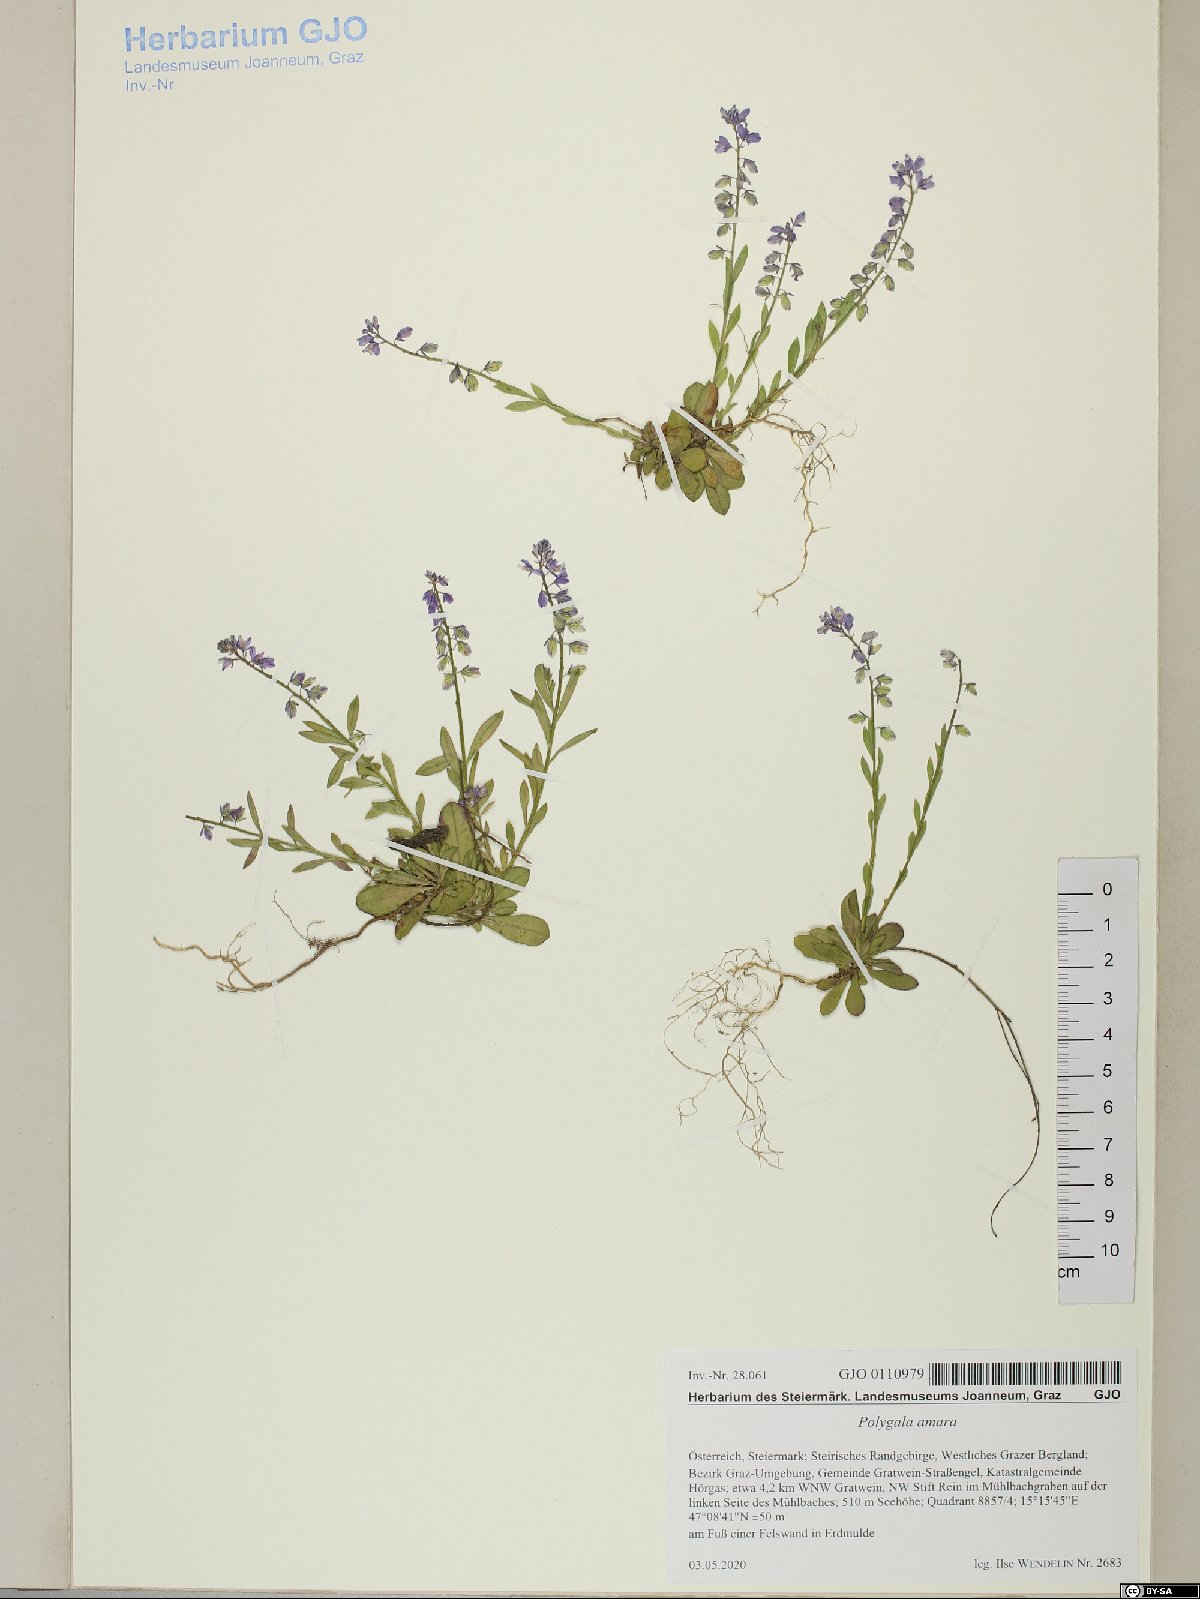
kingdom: Plantae
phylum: Tracheophyta
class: Magnoliopsida
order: Fabales
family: Polygalaceae
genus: Polygala
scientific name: Polygala amara
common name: Milkwort
